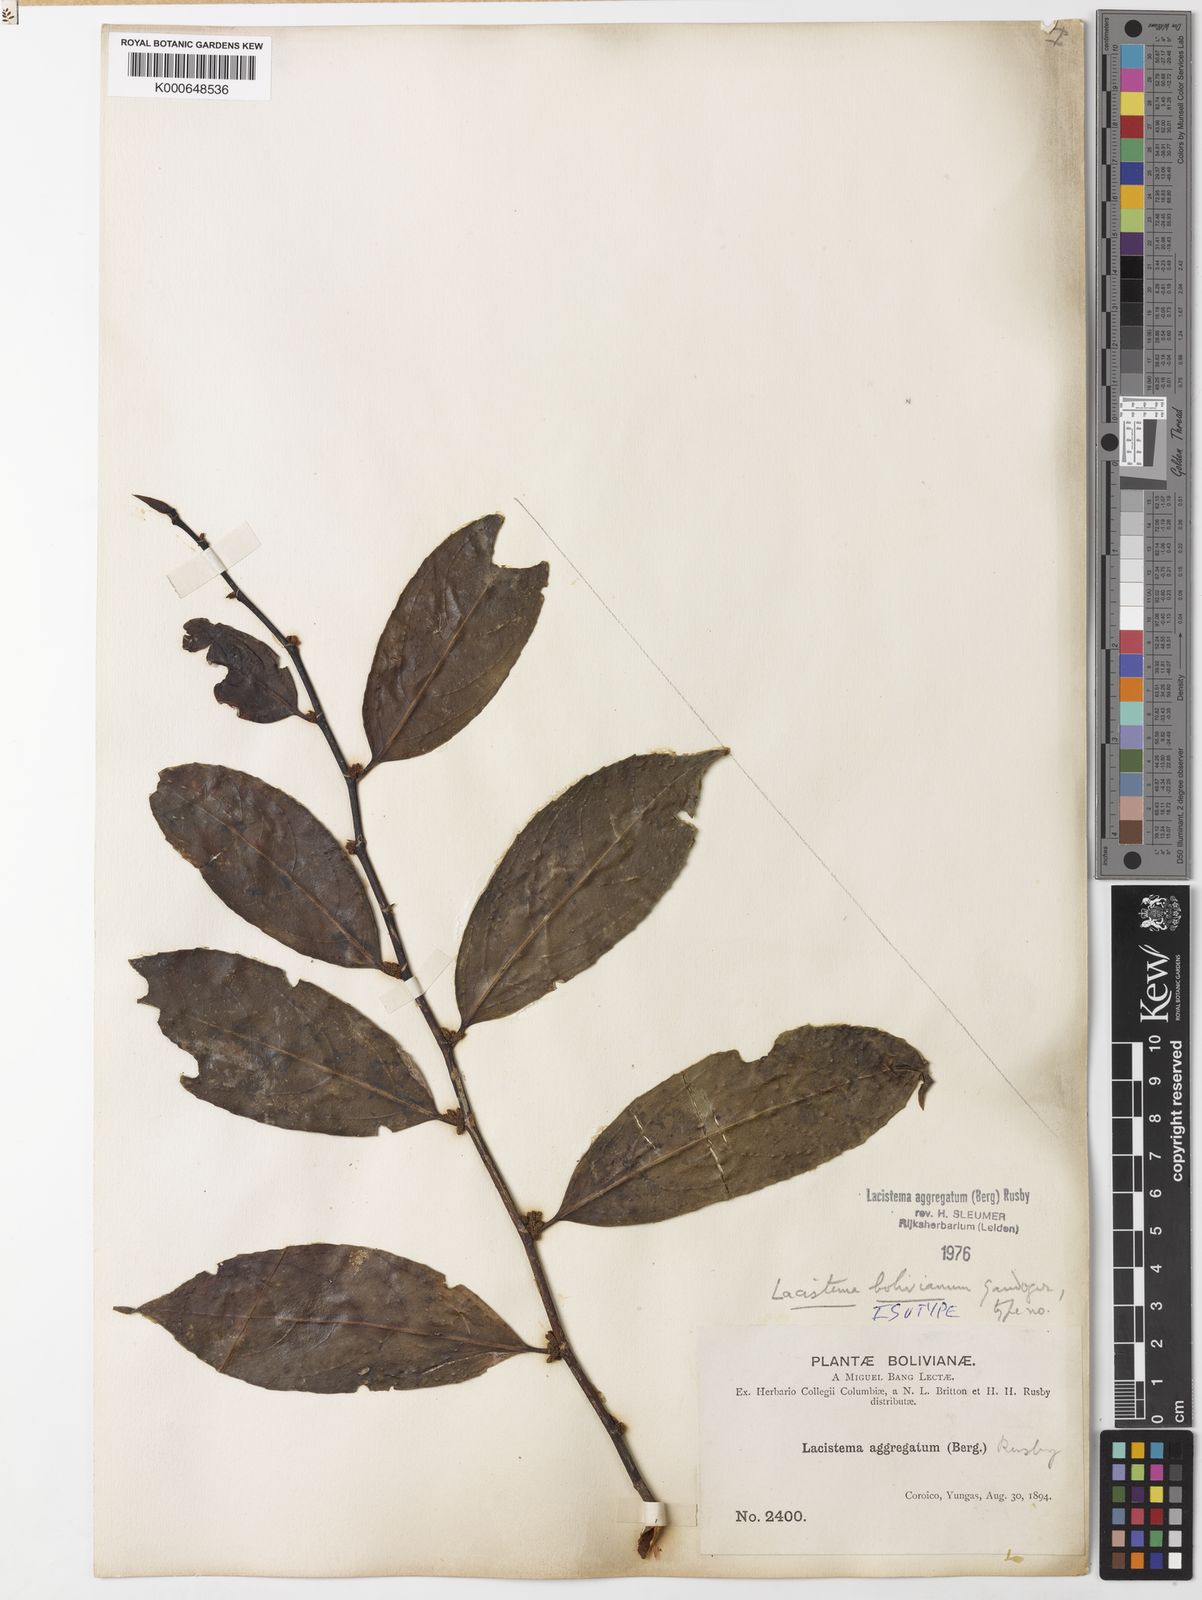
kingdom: Plantae
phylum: Tracheophyta
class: Magnoliopsida
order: Malpighiales
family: Lacistemataceae
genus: Lacistema
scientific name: Lacistema aggregatum
